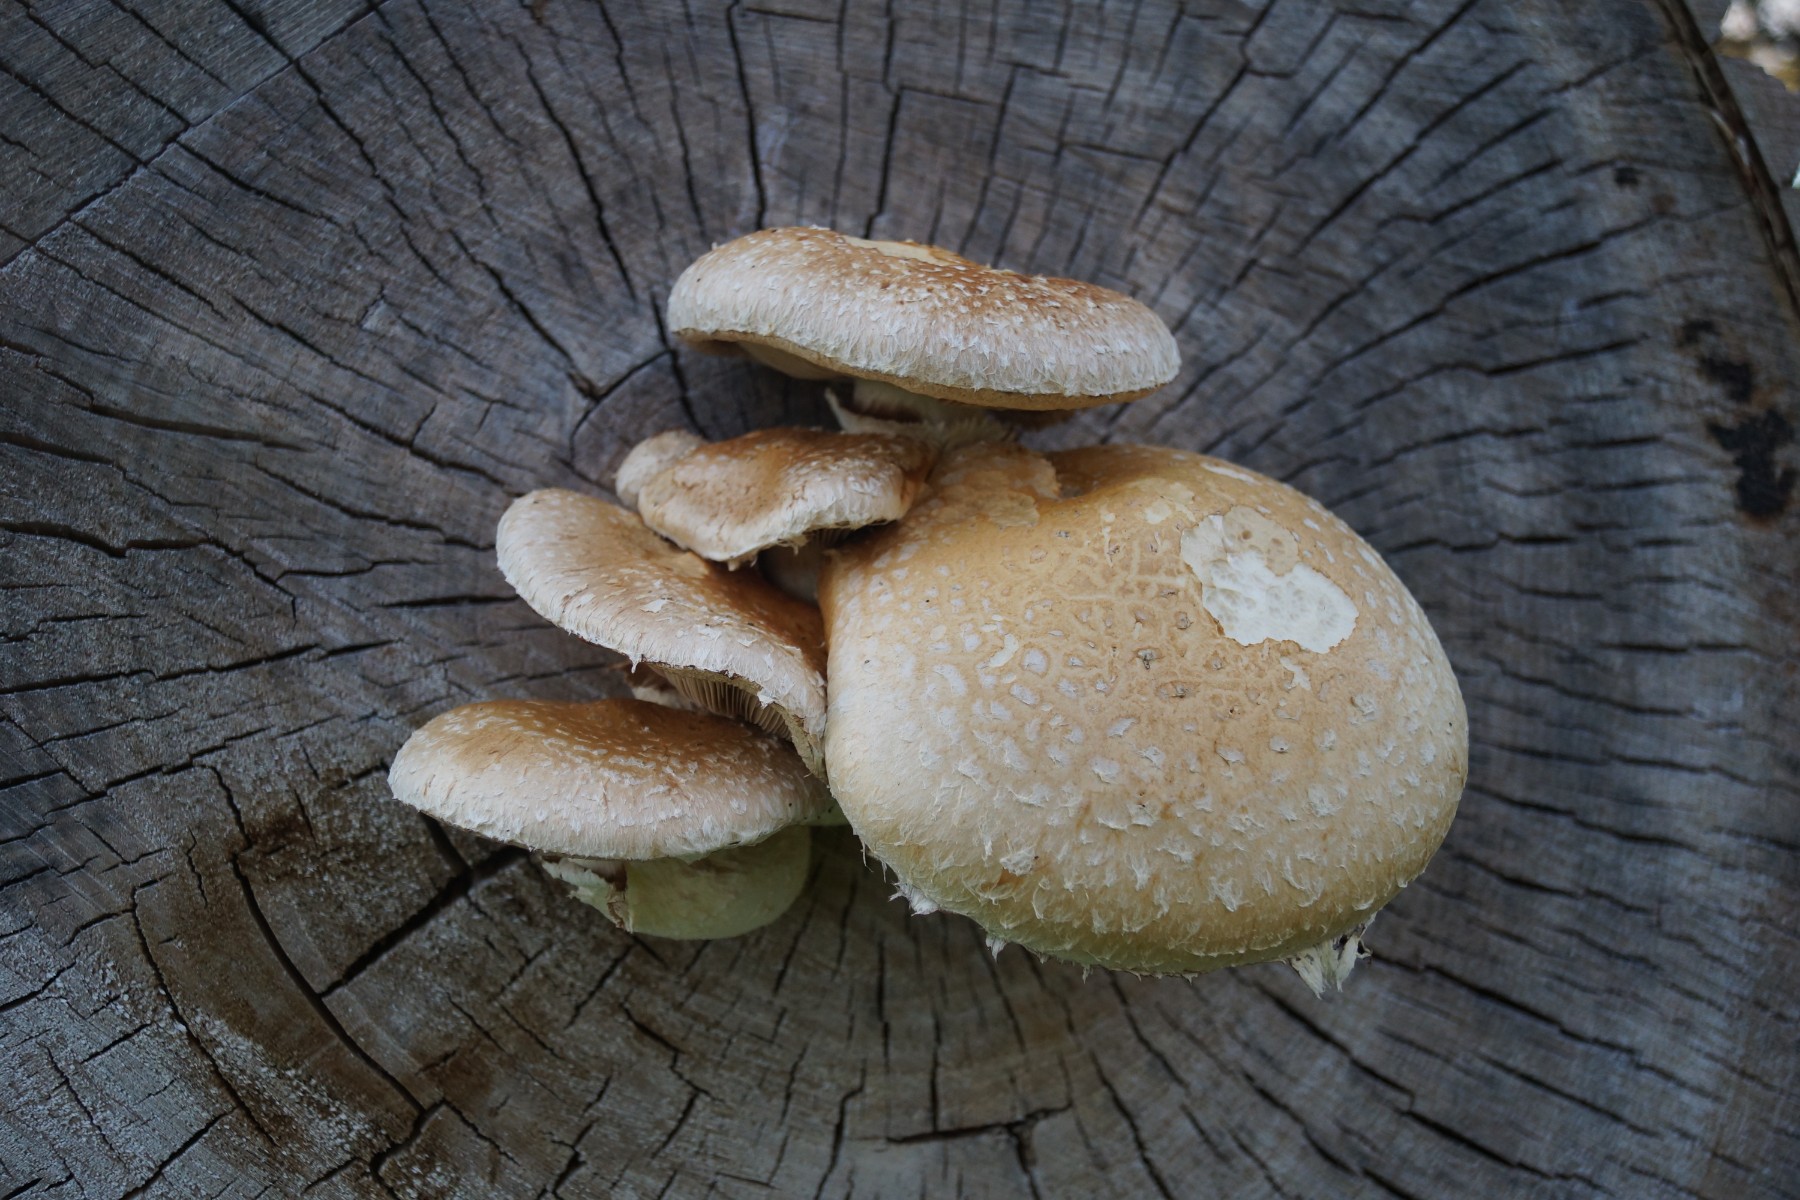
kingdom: Fungi
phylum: Basidiomycota
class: Agaricomycetes
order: Agaricales
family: Strophariaceae
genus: Pholiota
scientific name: Pholiota populnea
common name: poppel-kæmpeskælhat
